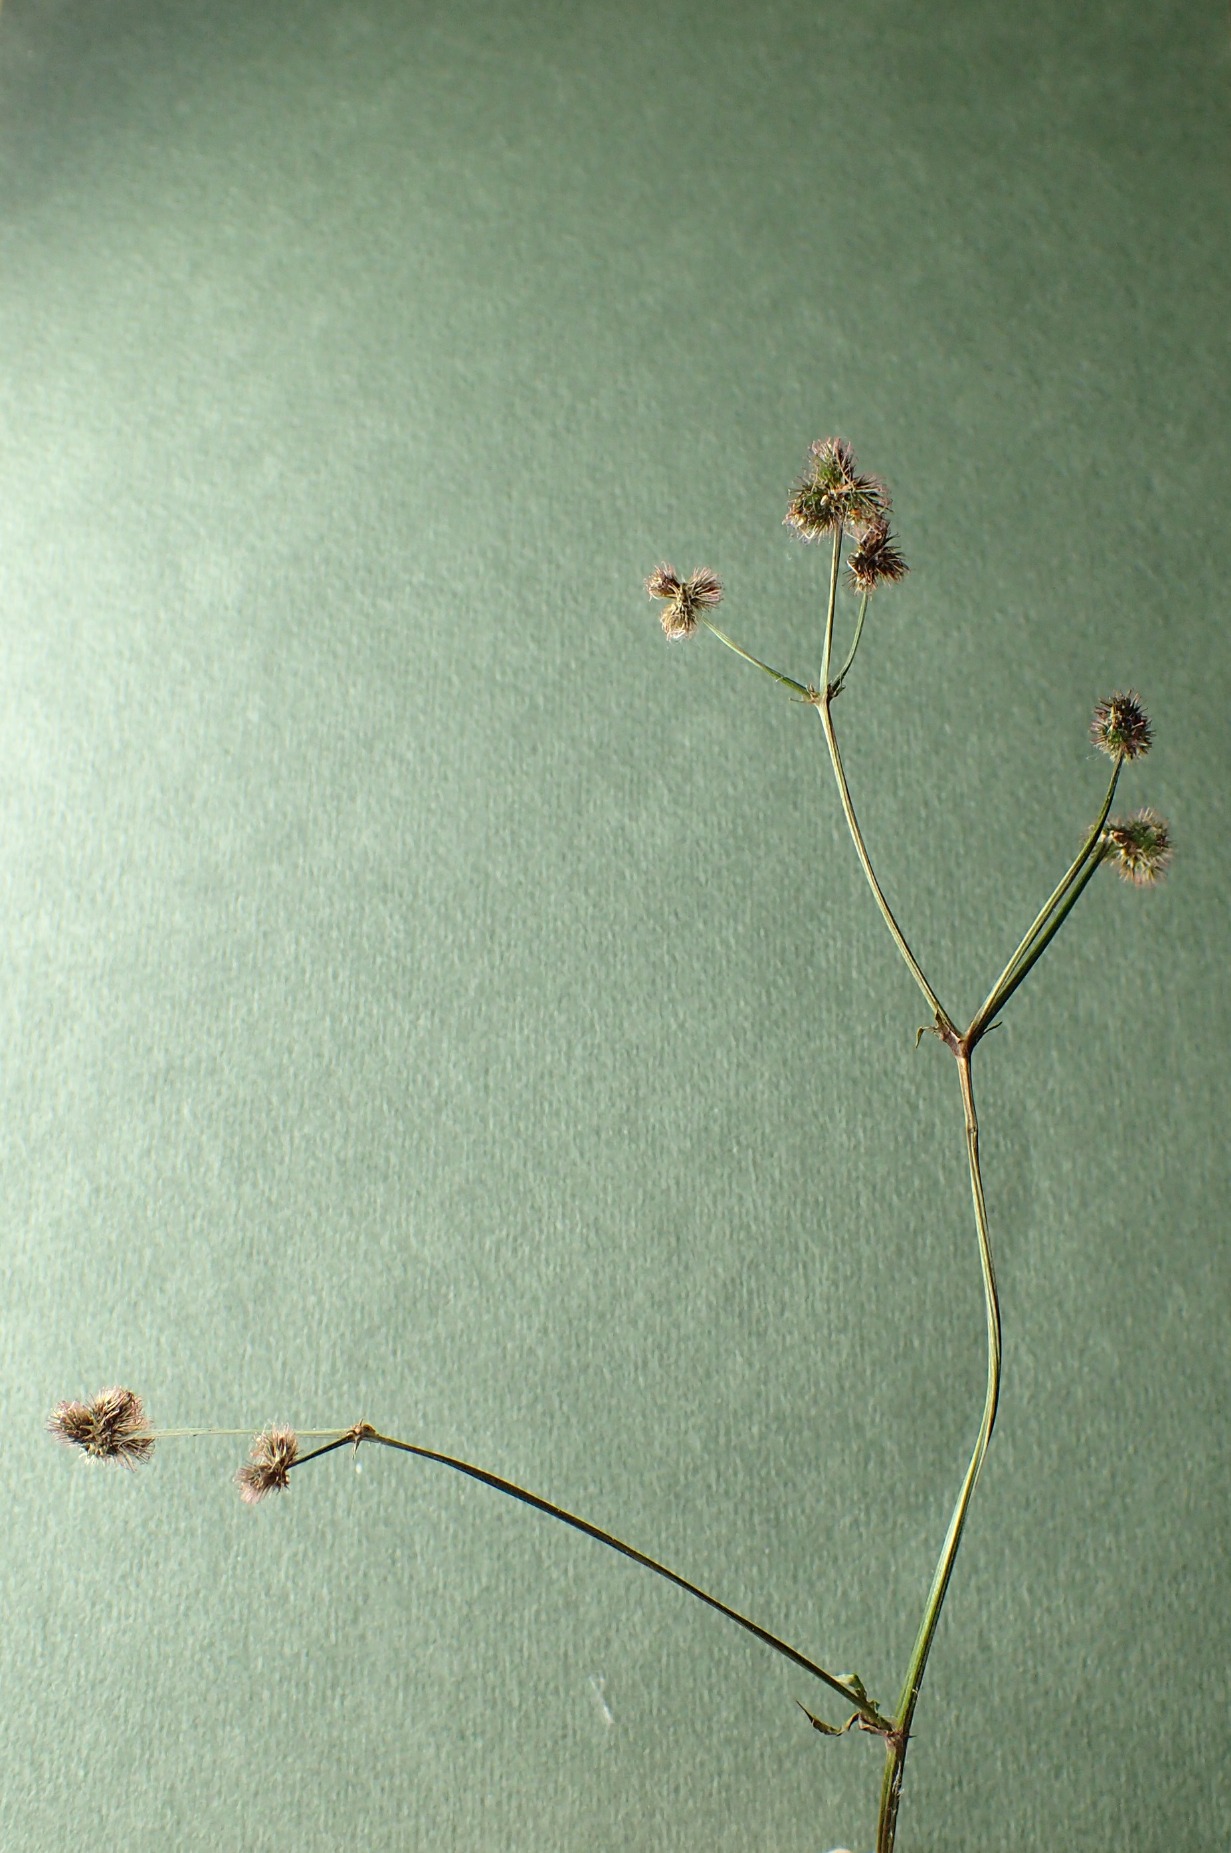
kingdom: Plantae
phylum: Tracheophyta
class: Magnoliopsida
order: Apiales
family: Apiaceae
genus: Sanicula
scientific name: Sanicula europaea
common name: Sanikel
